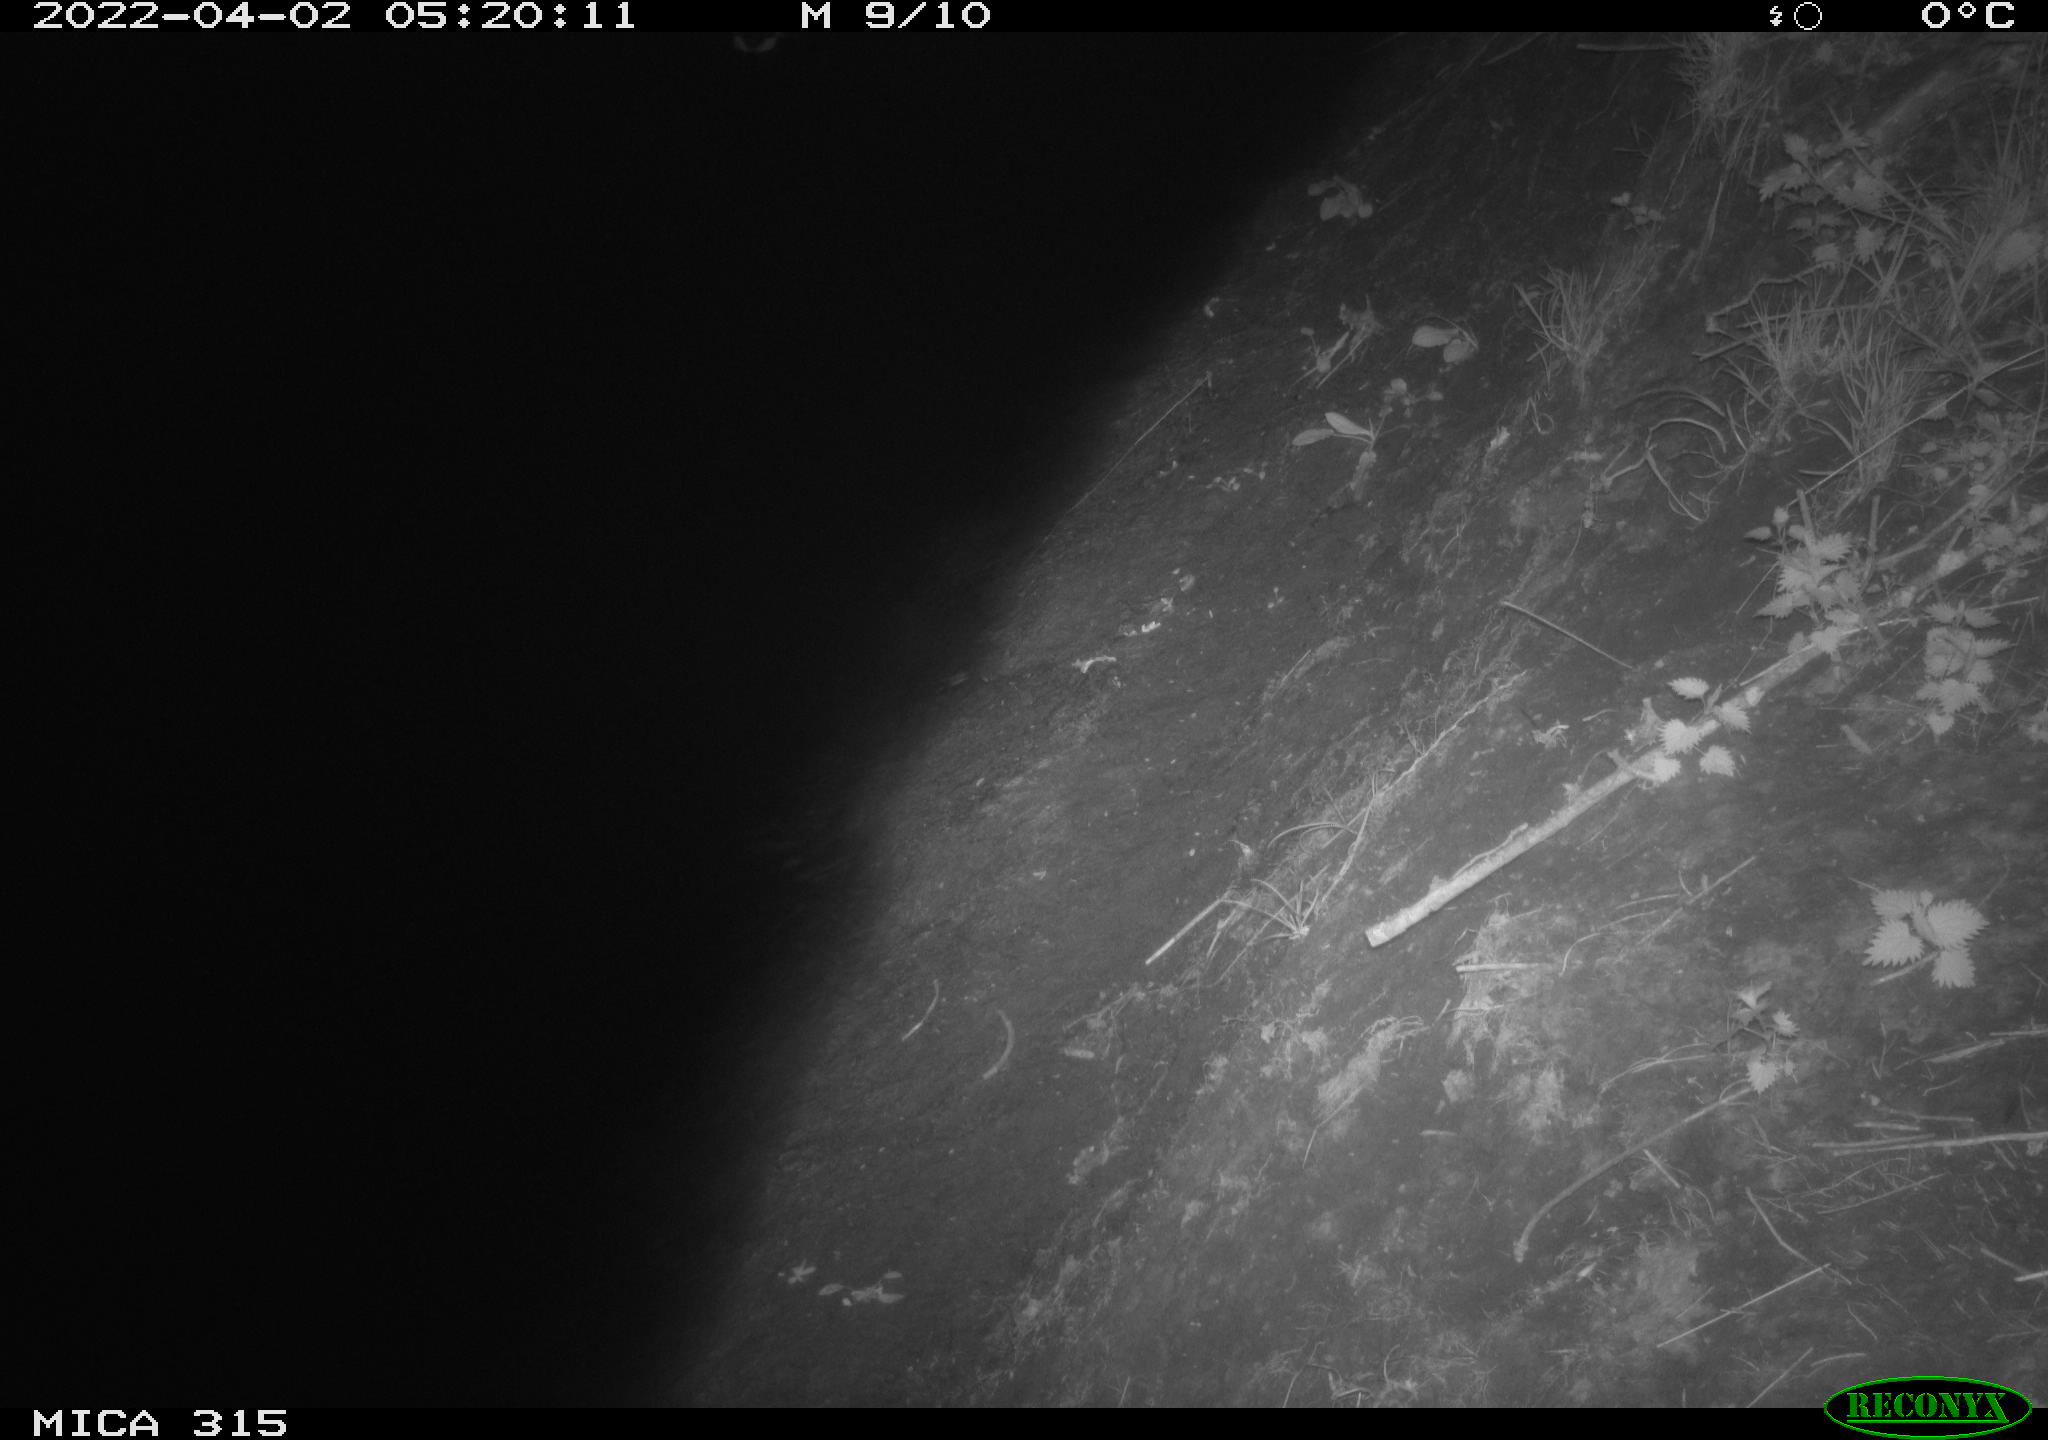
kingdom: Animalia
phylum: Chordata
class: Aves
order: Anseriformes
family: Anatidae
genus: Anas
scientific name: Anas platyrhynchos
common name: Mallard
